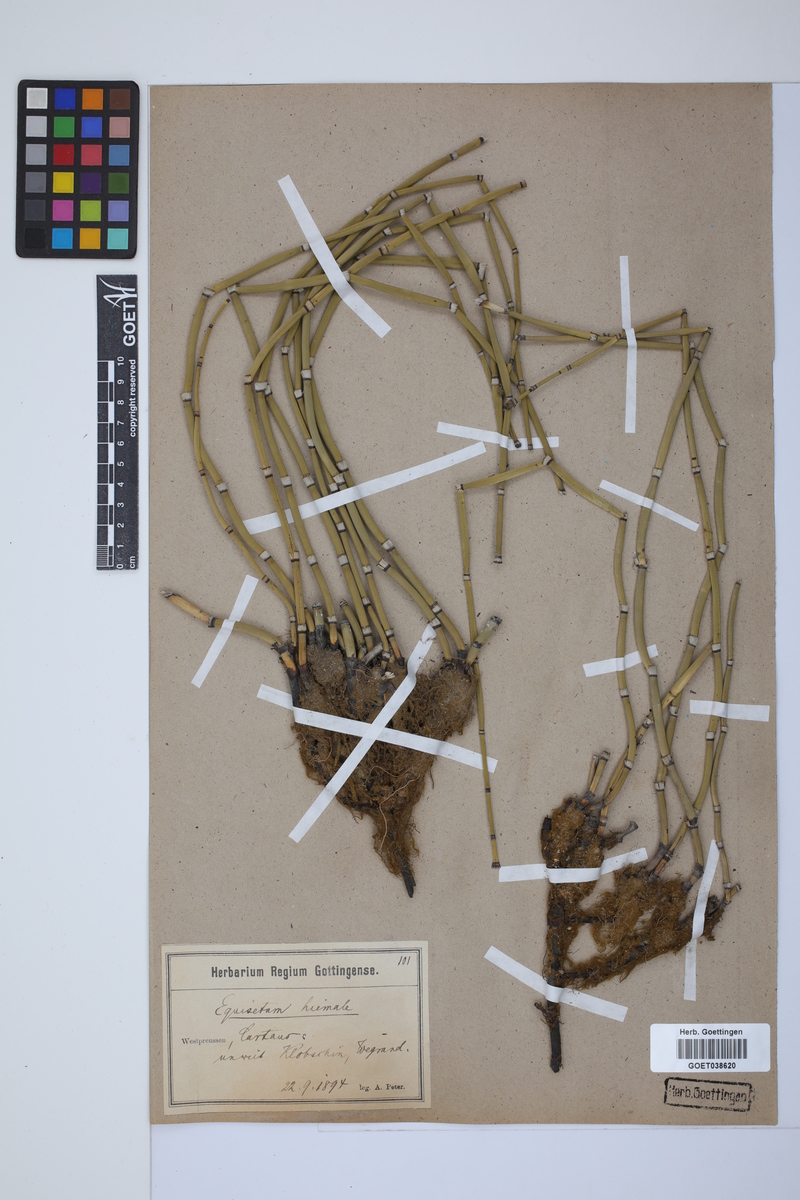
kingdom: Plantae
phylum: Tracheophyta
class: Polypodiopsida
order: Equisetales
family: Equisetaceae
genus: Equisetum
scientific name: Equisetum hyemale
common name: Rough horsetail
